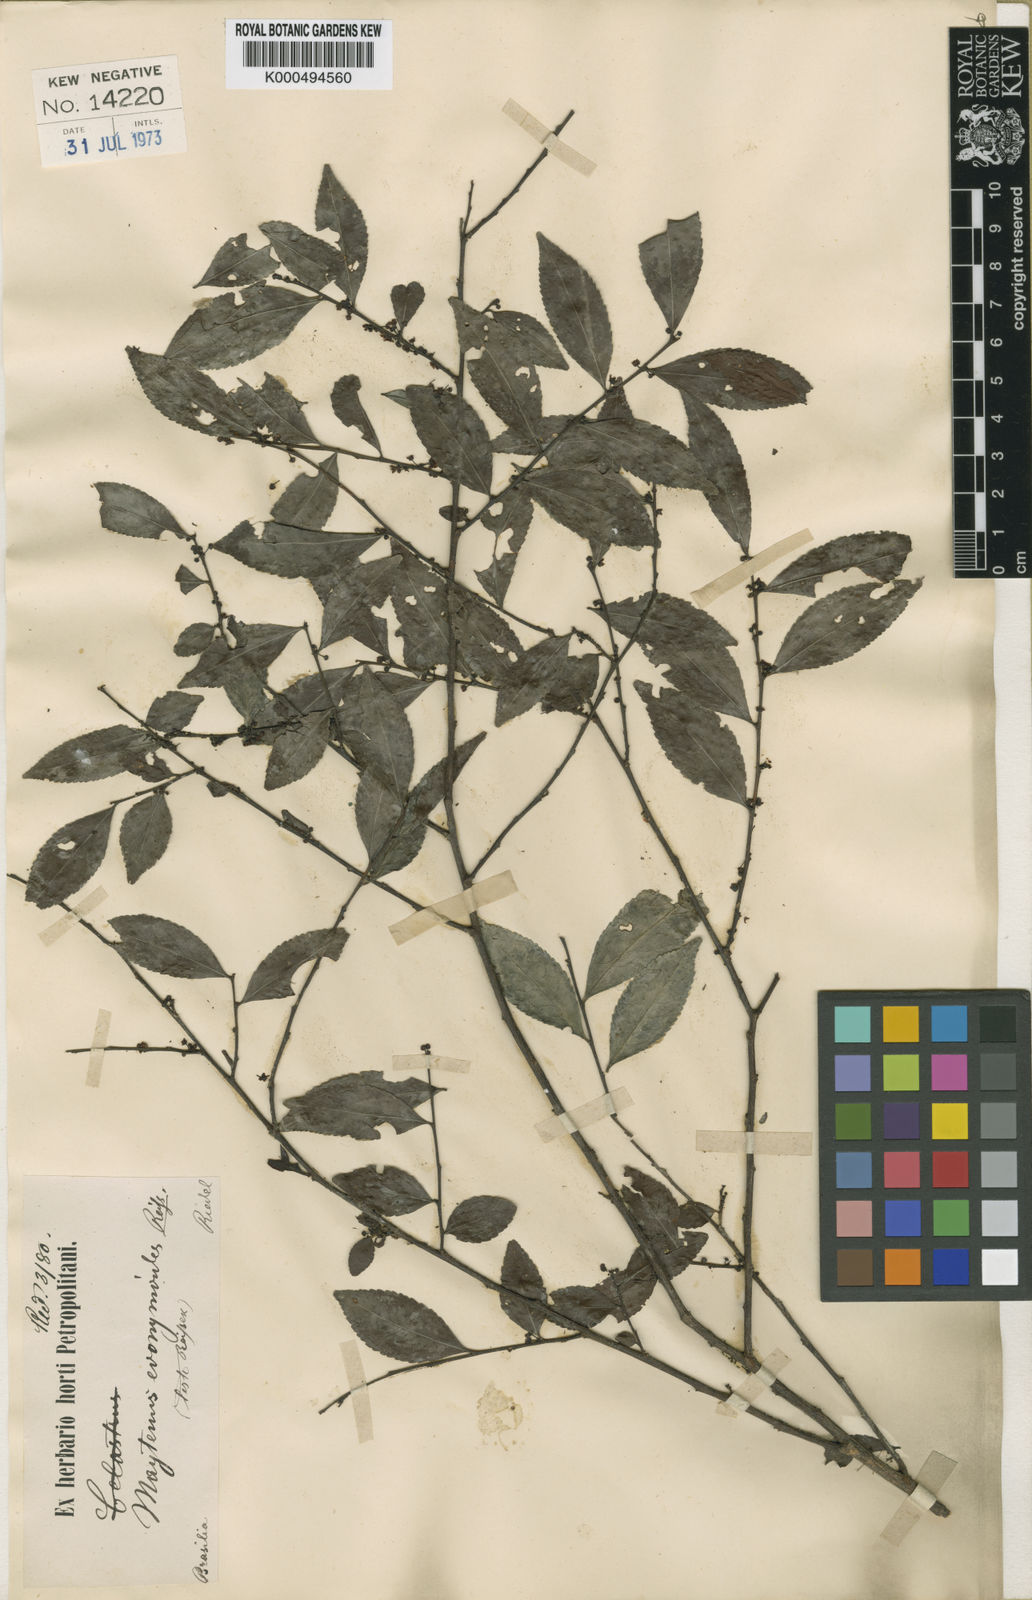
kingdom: Plantae
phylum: Tracheophyta
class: Magnoliopsida
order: Celastrales
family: Celastraceae
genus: Monteverdia
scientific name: Monteverdia evonymoides
